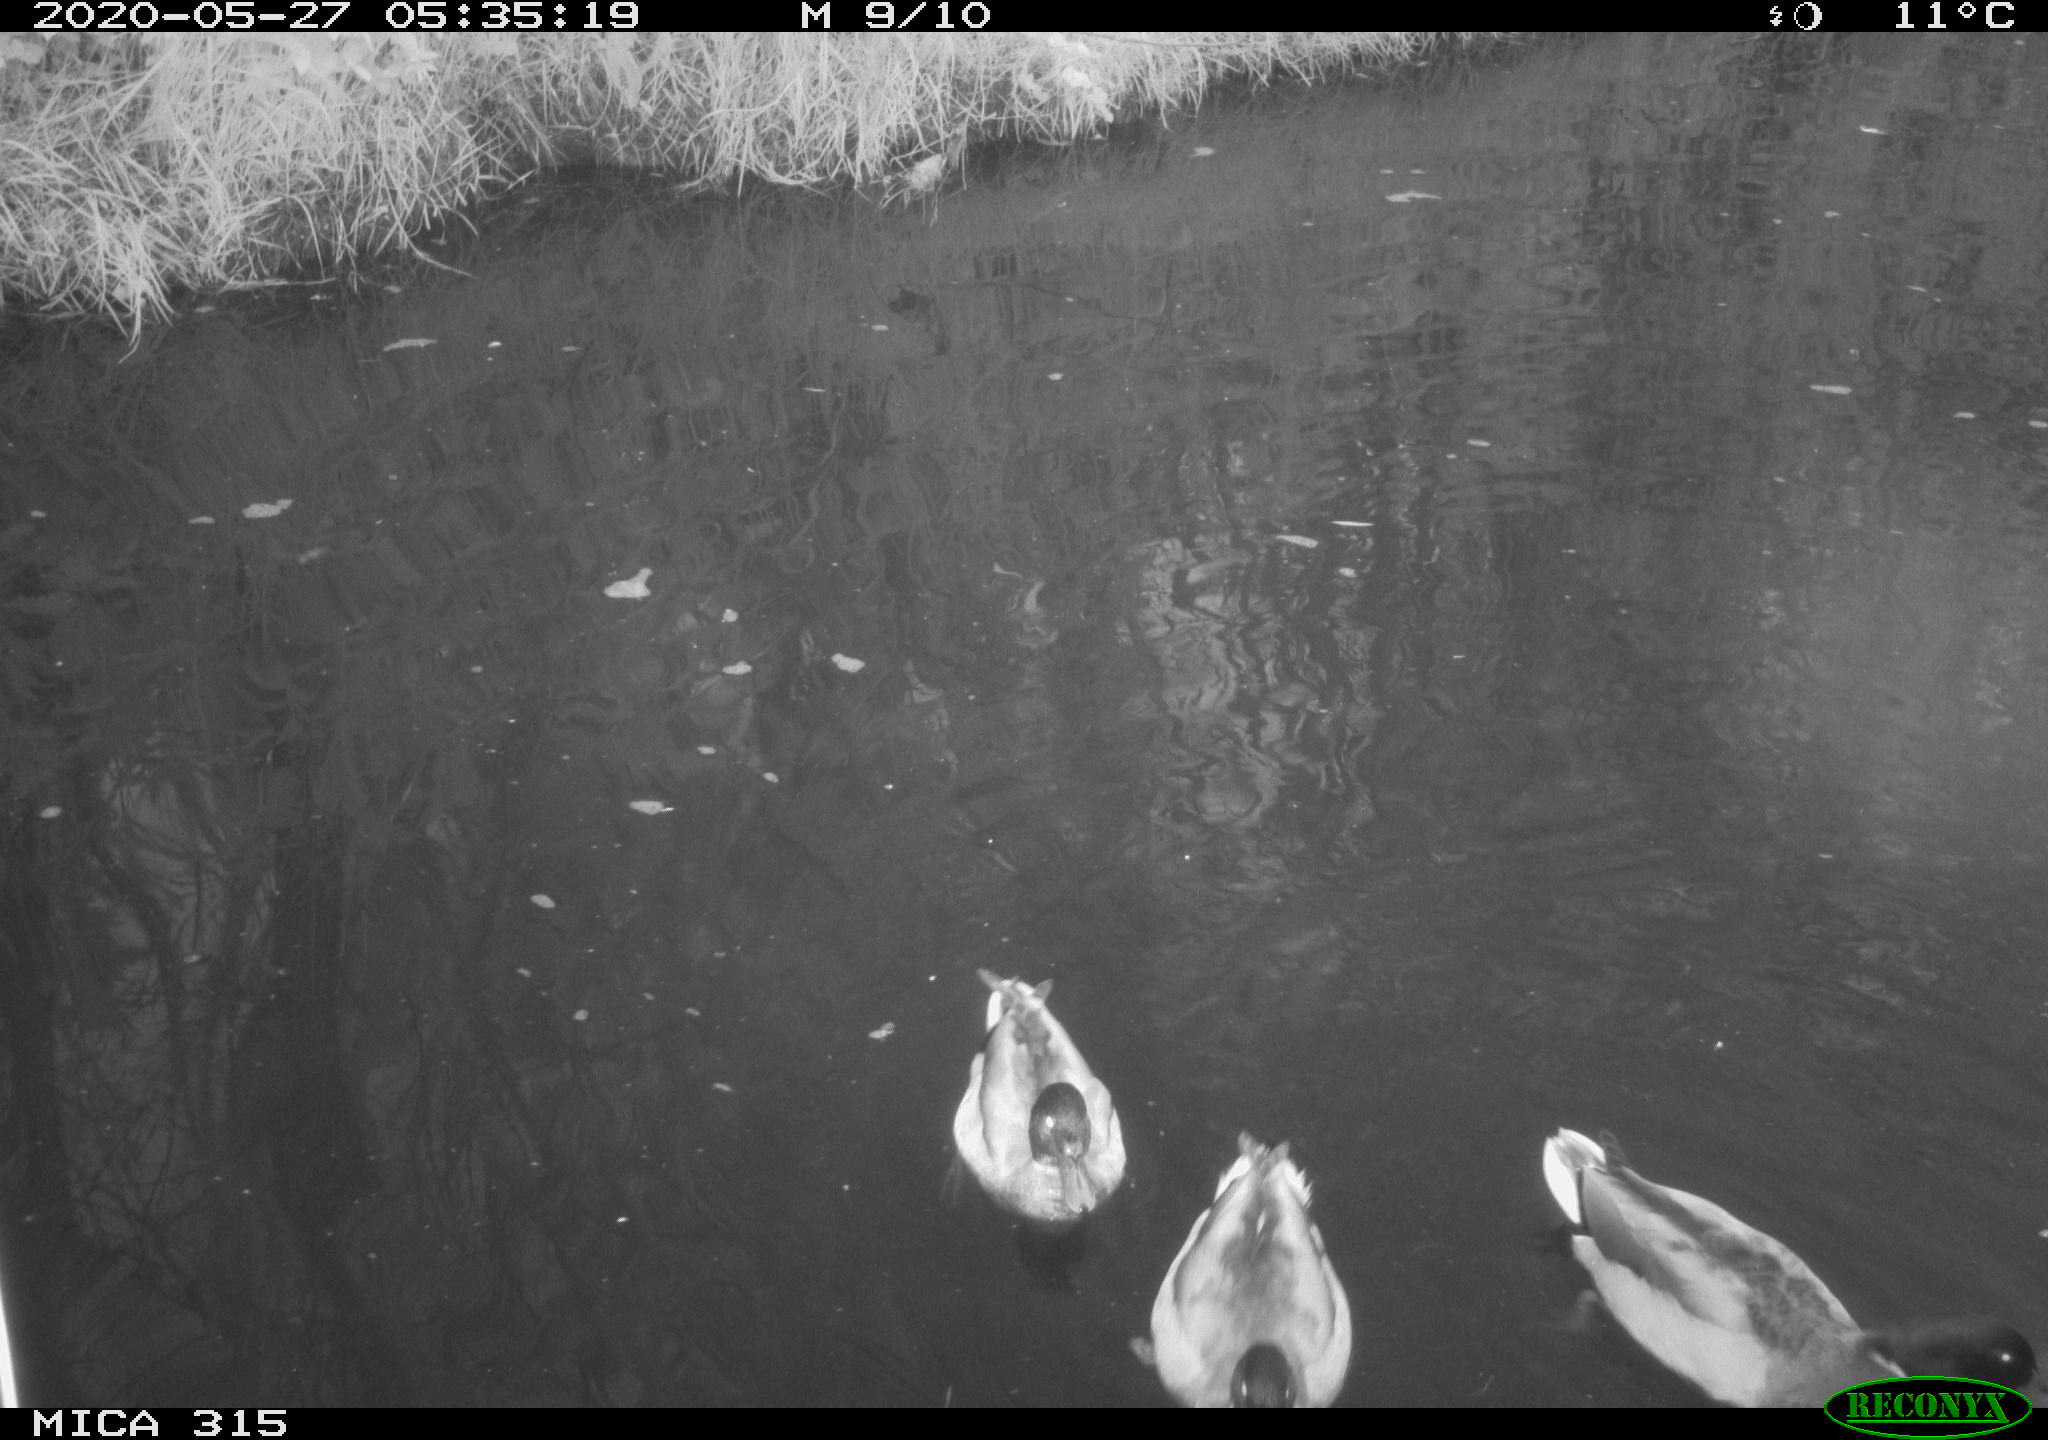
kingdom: Animalia
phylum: Chordata
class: Aves
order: Anseriformes
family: Anatidae
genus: Anas
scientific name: Anas platyrhynchos
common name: Mallard
